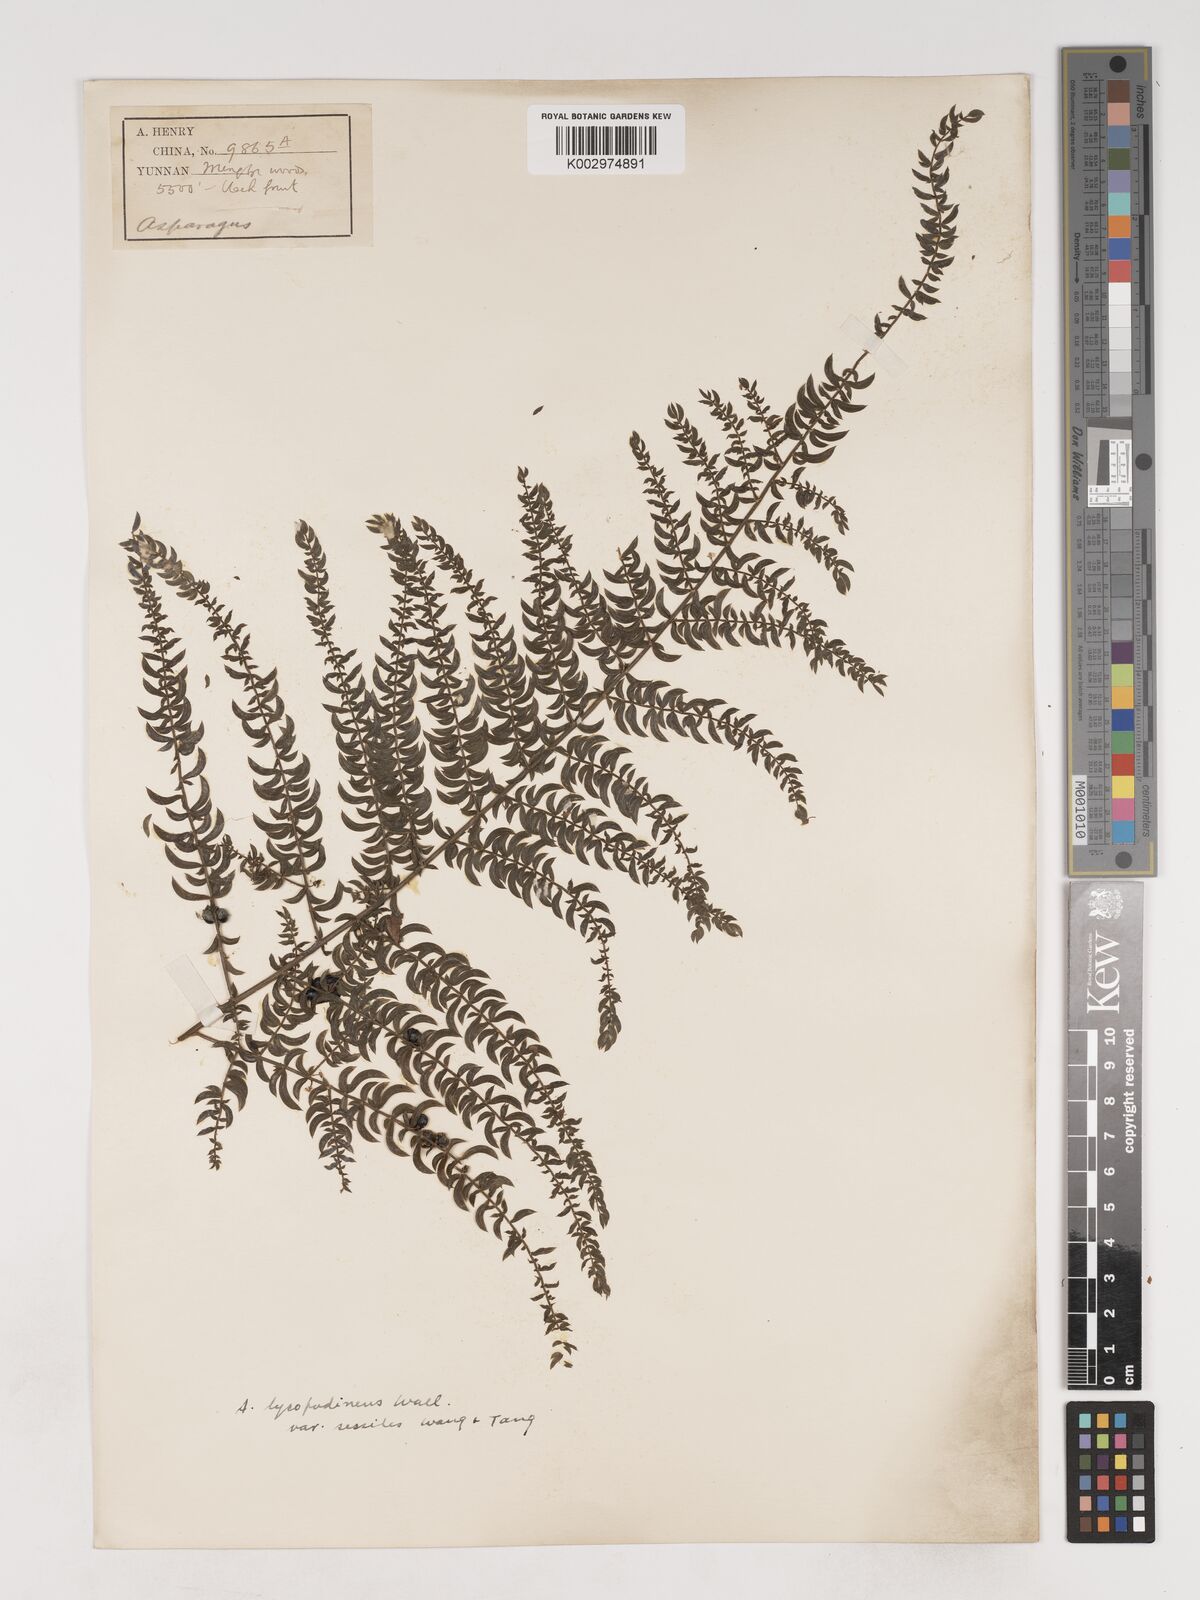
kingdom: Plantae
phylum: Tracheophyta
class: Liliopsida
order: Asparagales
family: Asparagaceae
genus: Asparagus
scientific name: Asparagus lycopodineus
